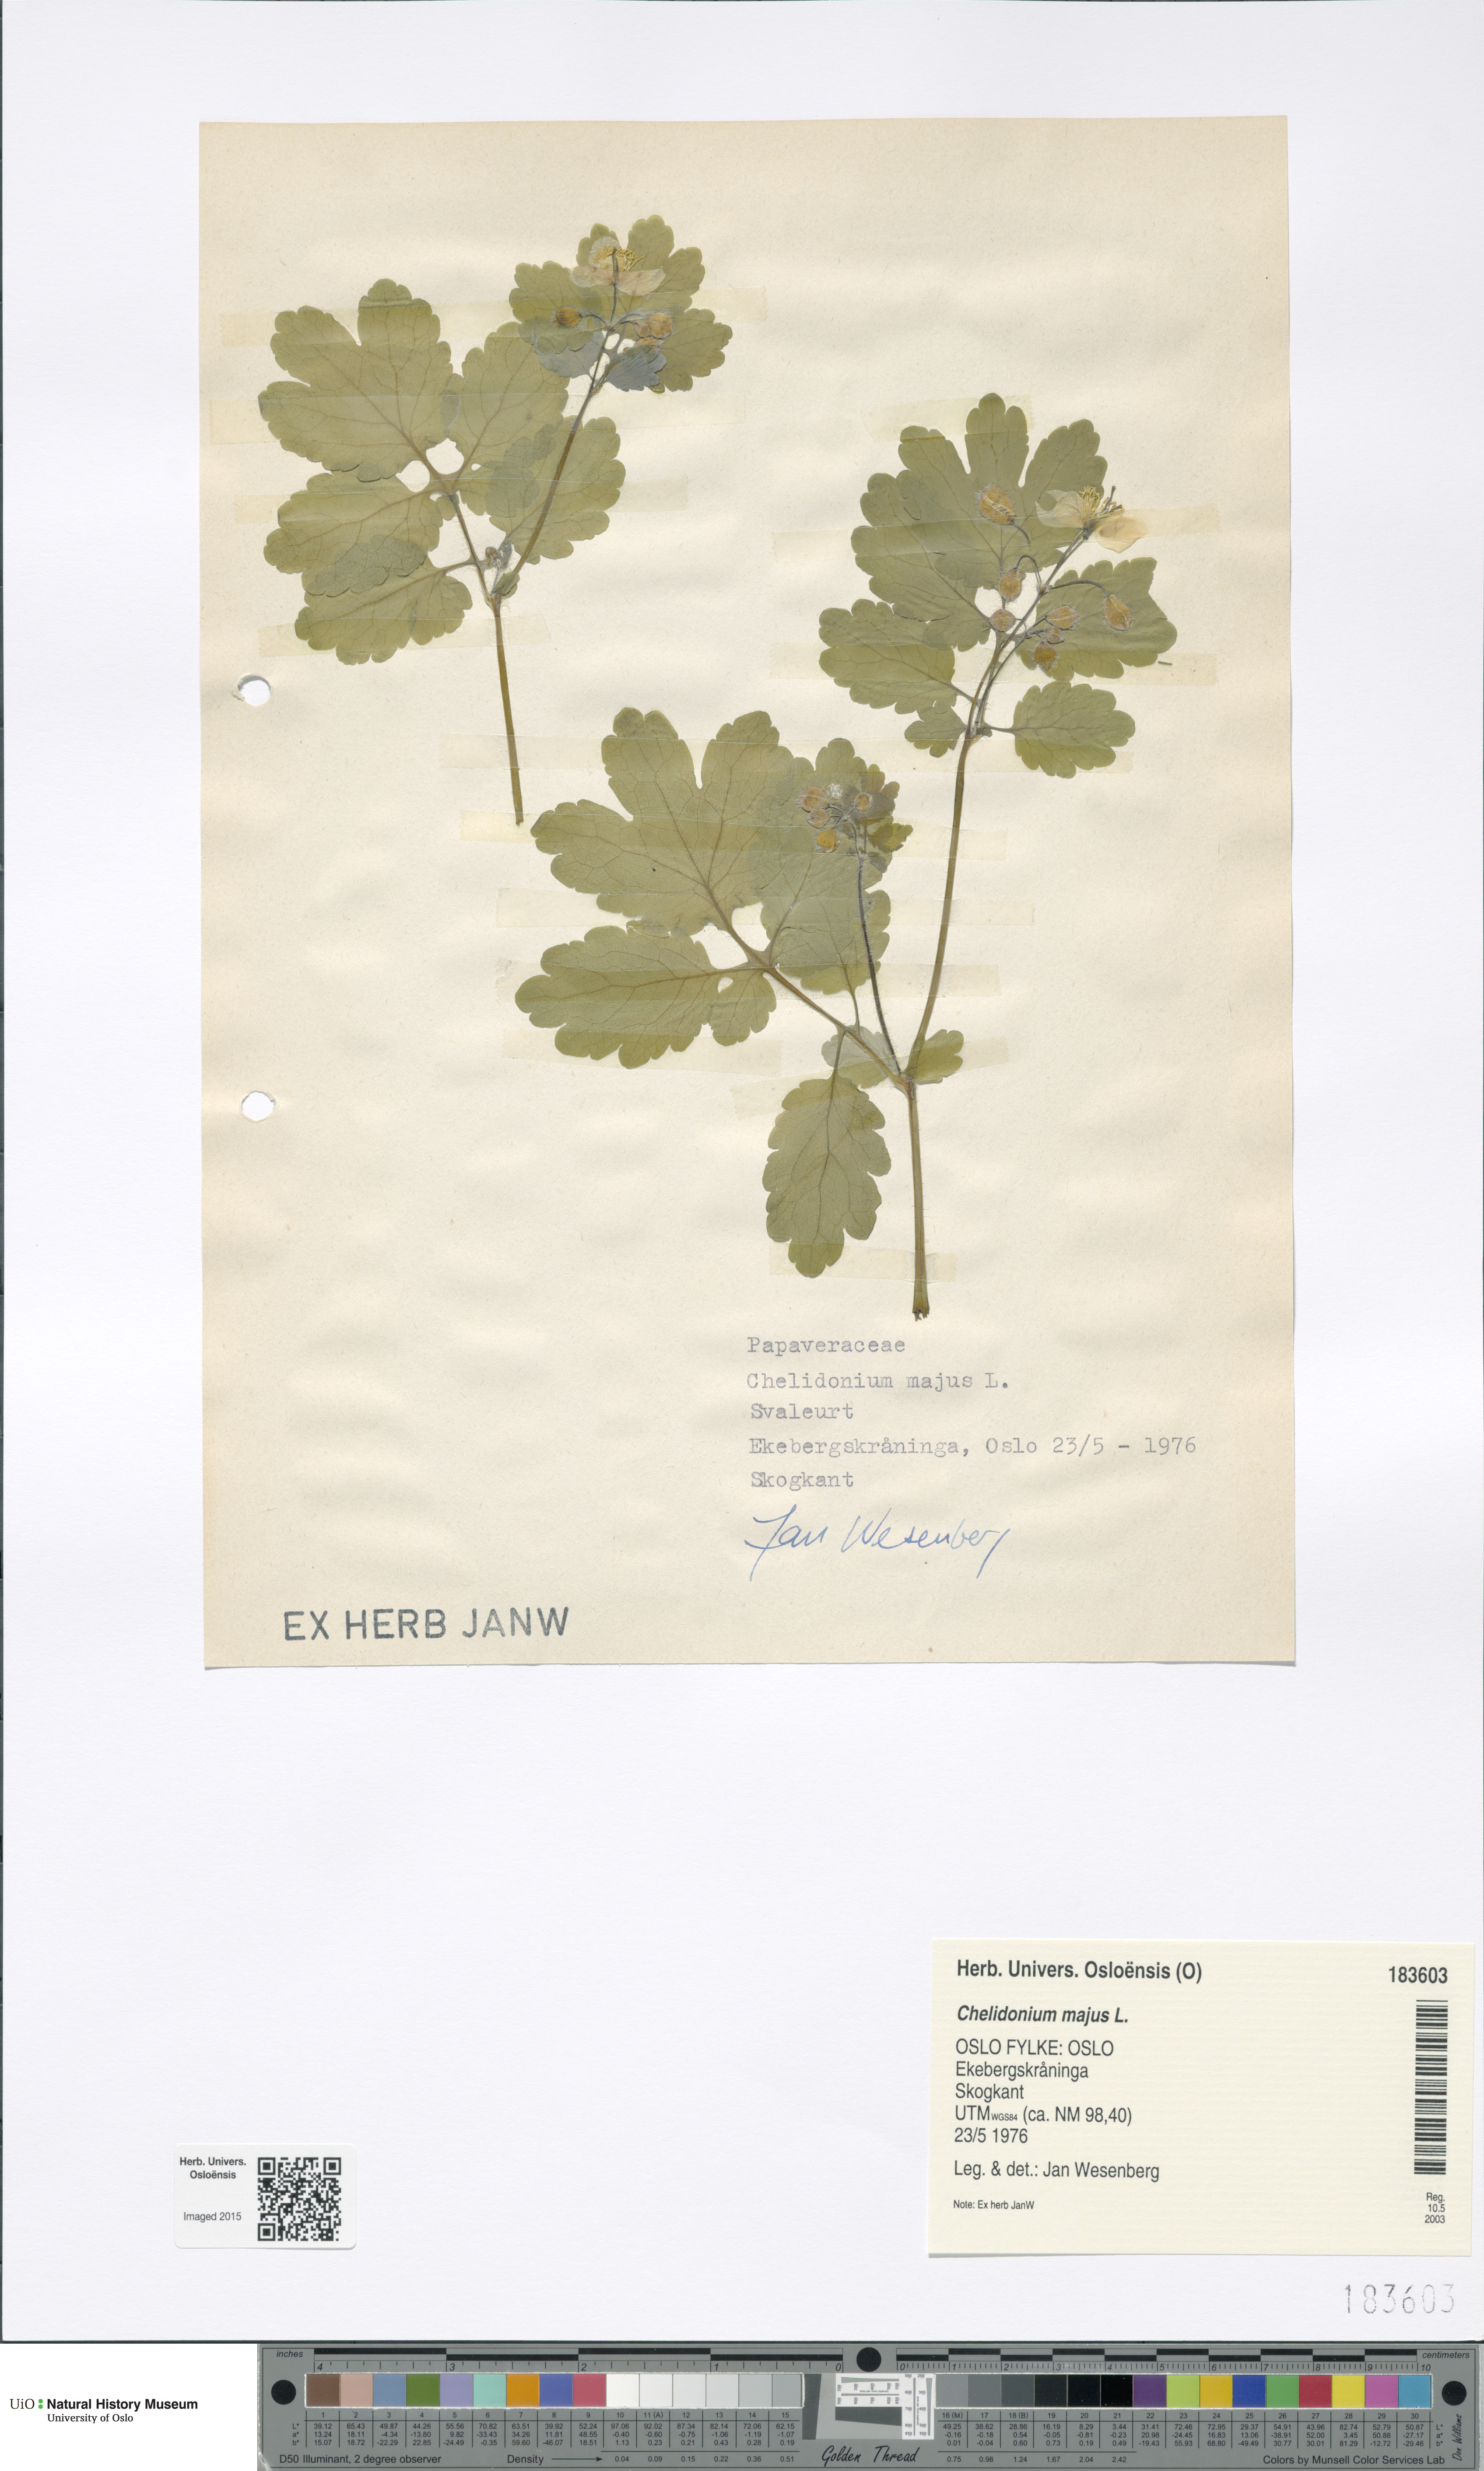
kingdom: Plantae
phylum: Tracheophyta
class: Magnoliopsida
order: Ranunculales
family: Papaveraceae
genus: Chelidonium
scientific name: Chelidonium majus
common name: Greater celandine
